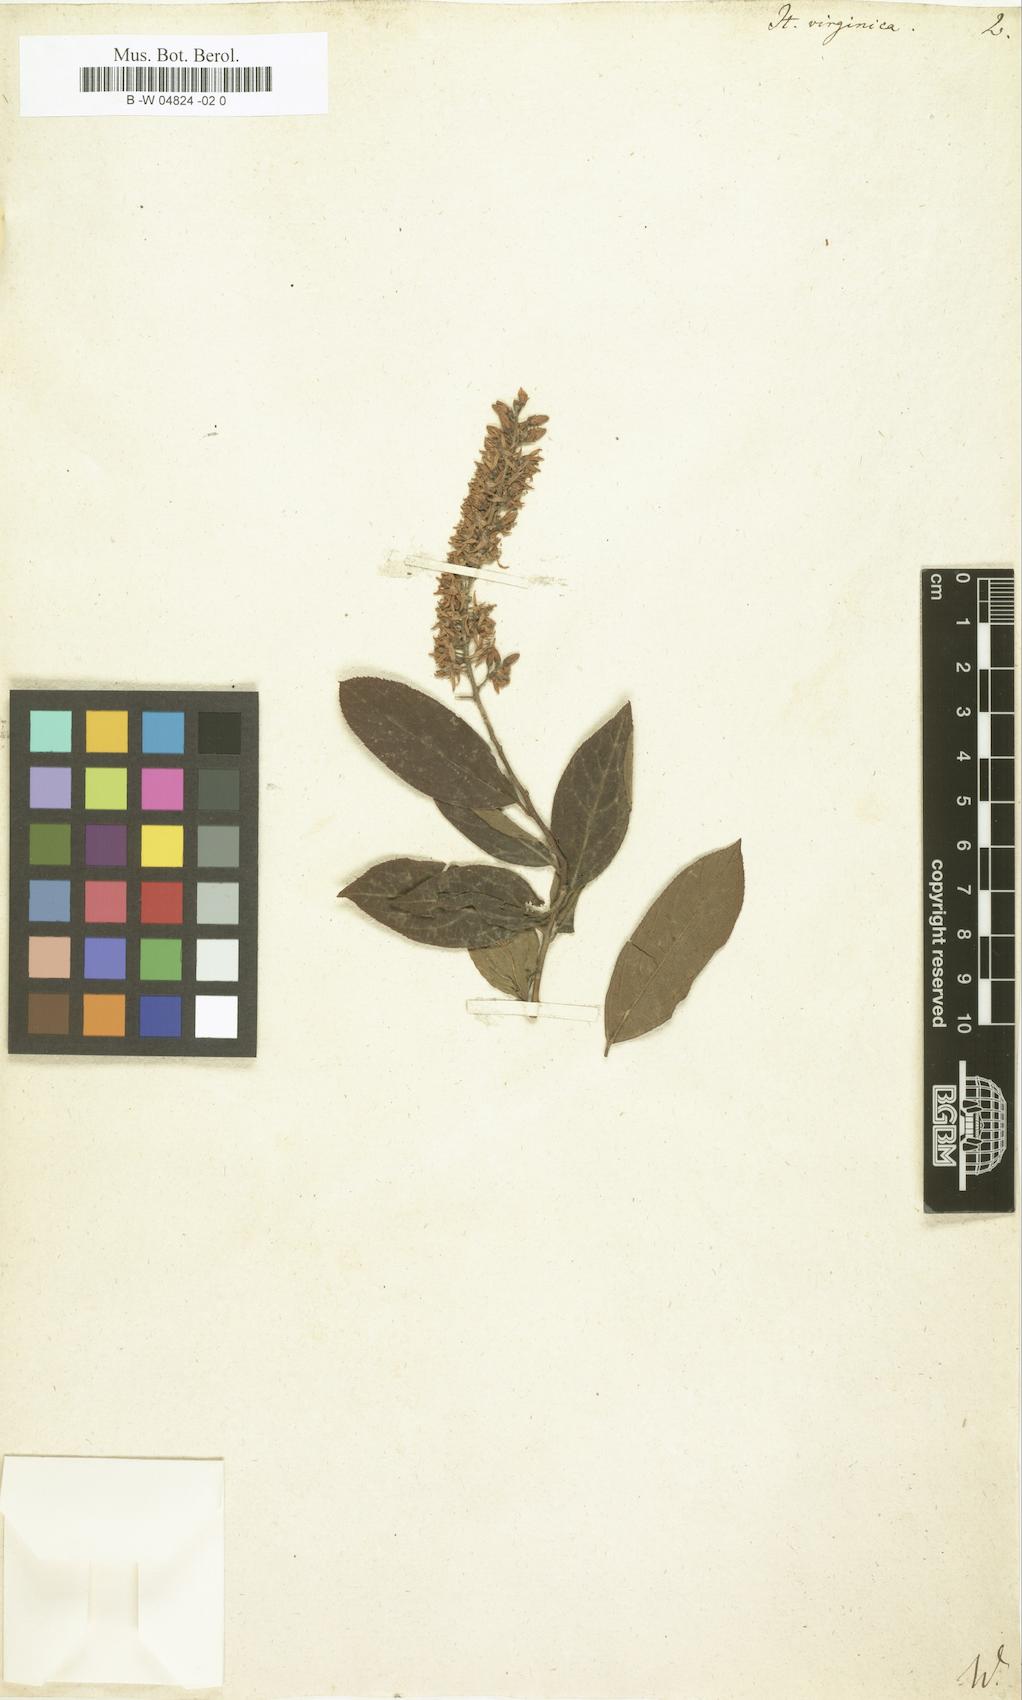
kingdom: Plantae
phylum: Tracheophyta
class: Magnoliopsida
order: Saxifragales
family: Iteaceae
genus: Itea
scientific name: Itea virginica
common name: Sweetspire
